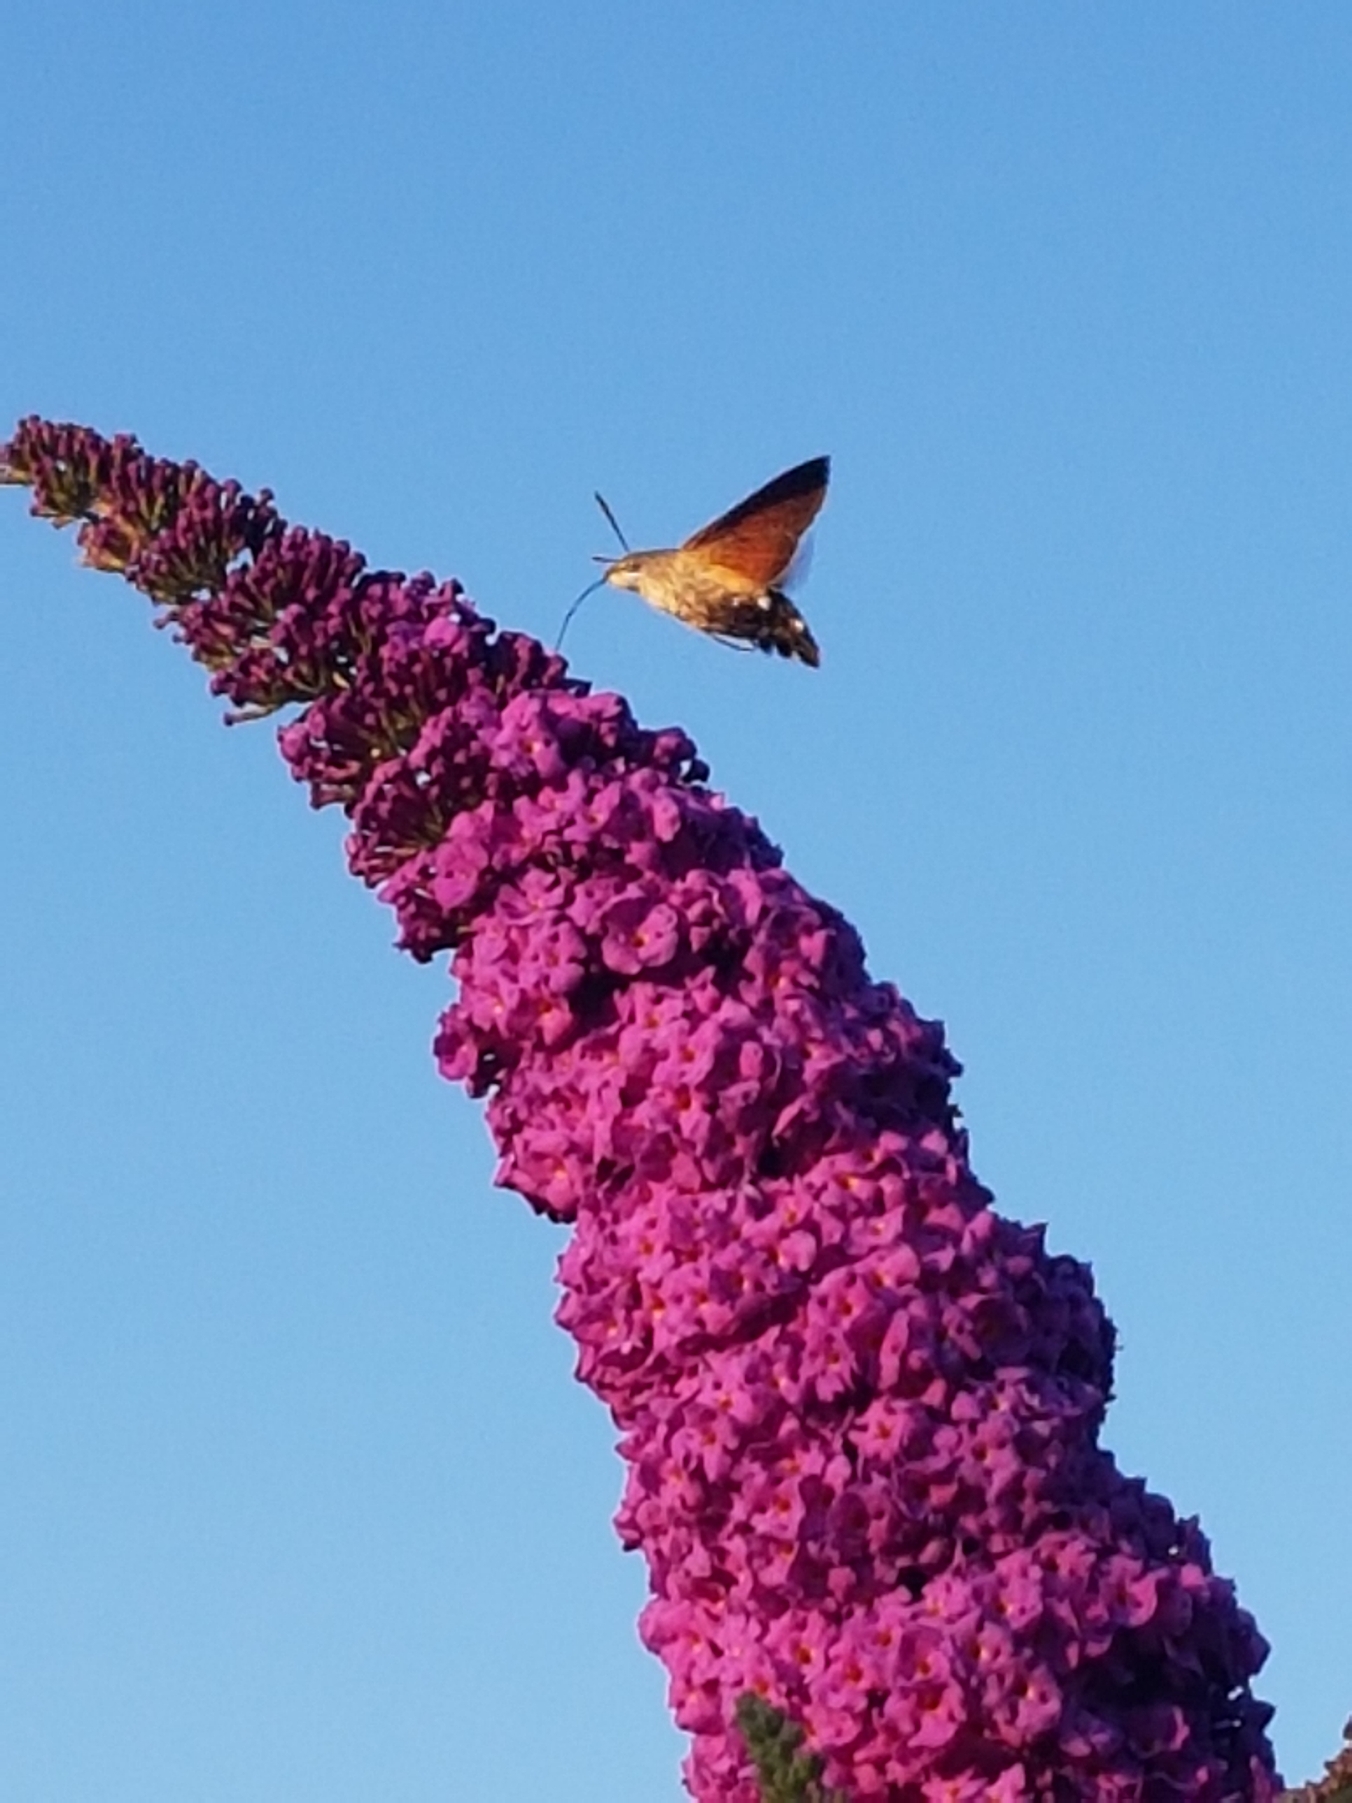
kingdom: Animalia
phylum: Arthropoda
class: Insecta
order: Lepidoptera
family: Sphingidae
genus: Macroglossum
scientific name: Macroglossum stellatarum
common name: Duehale
